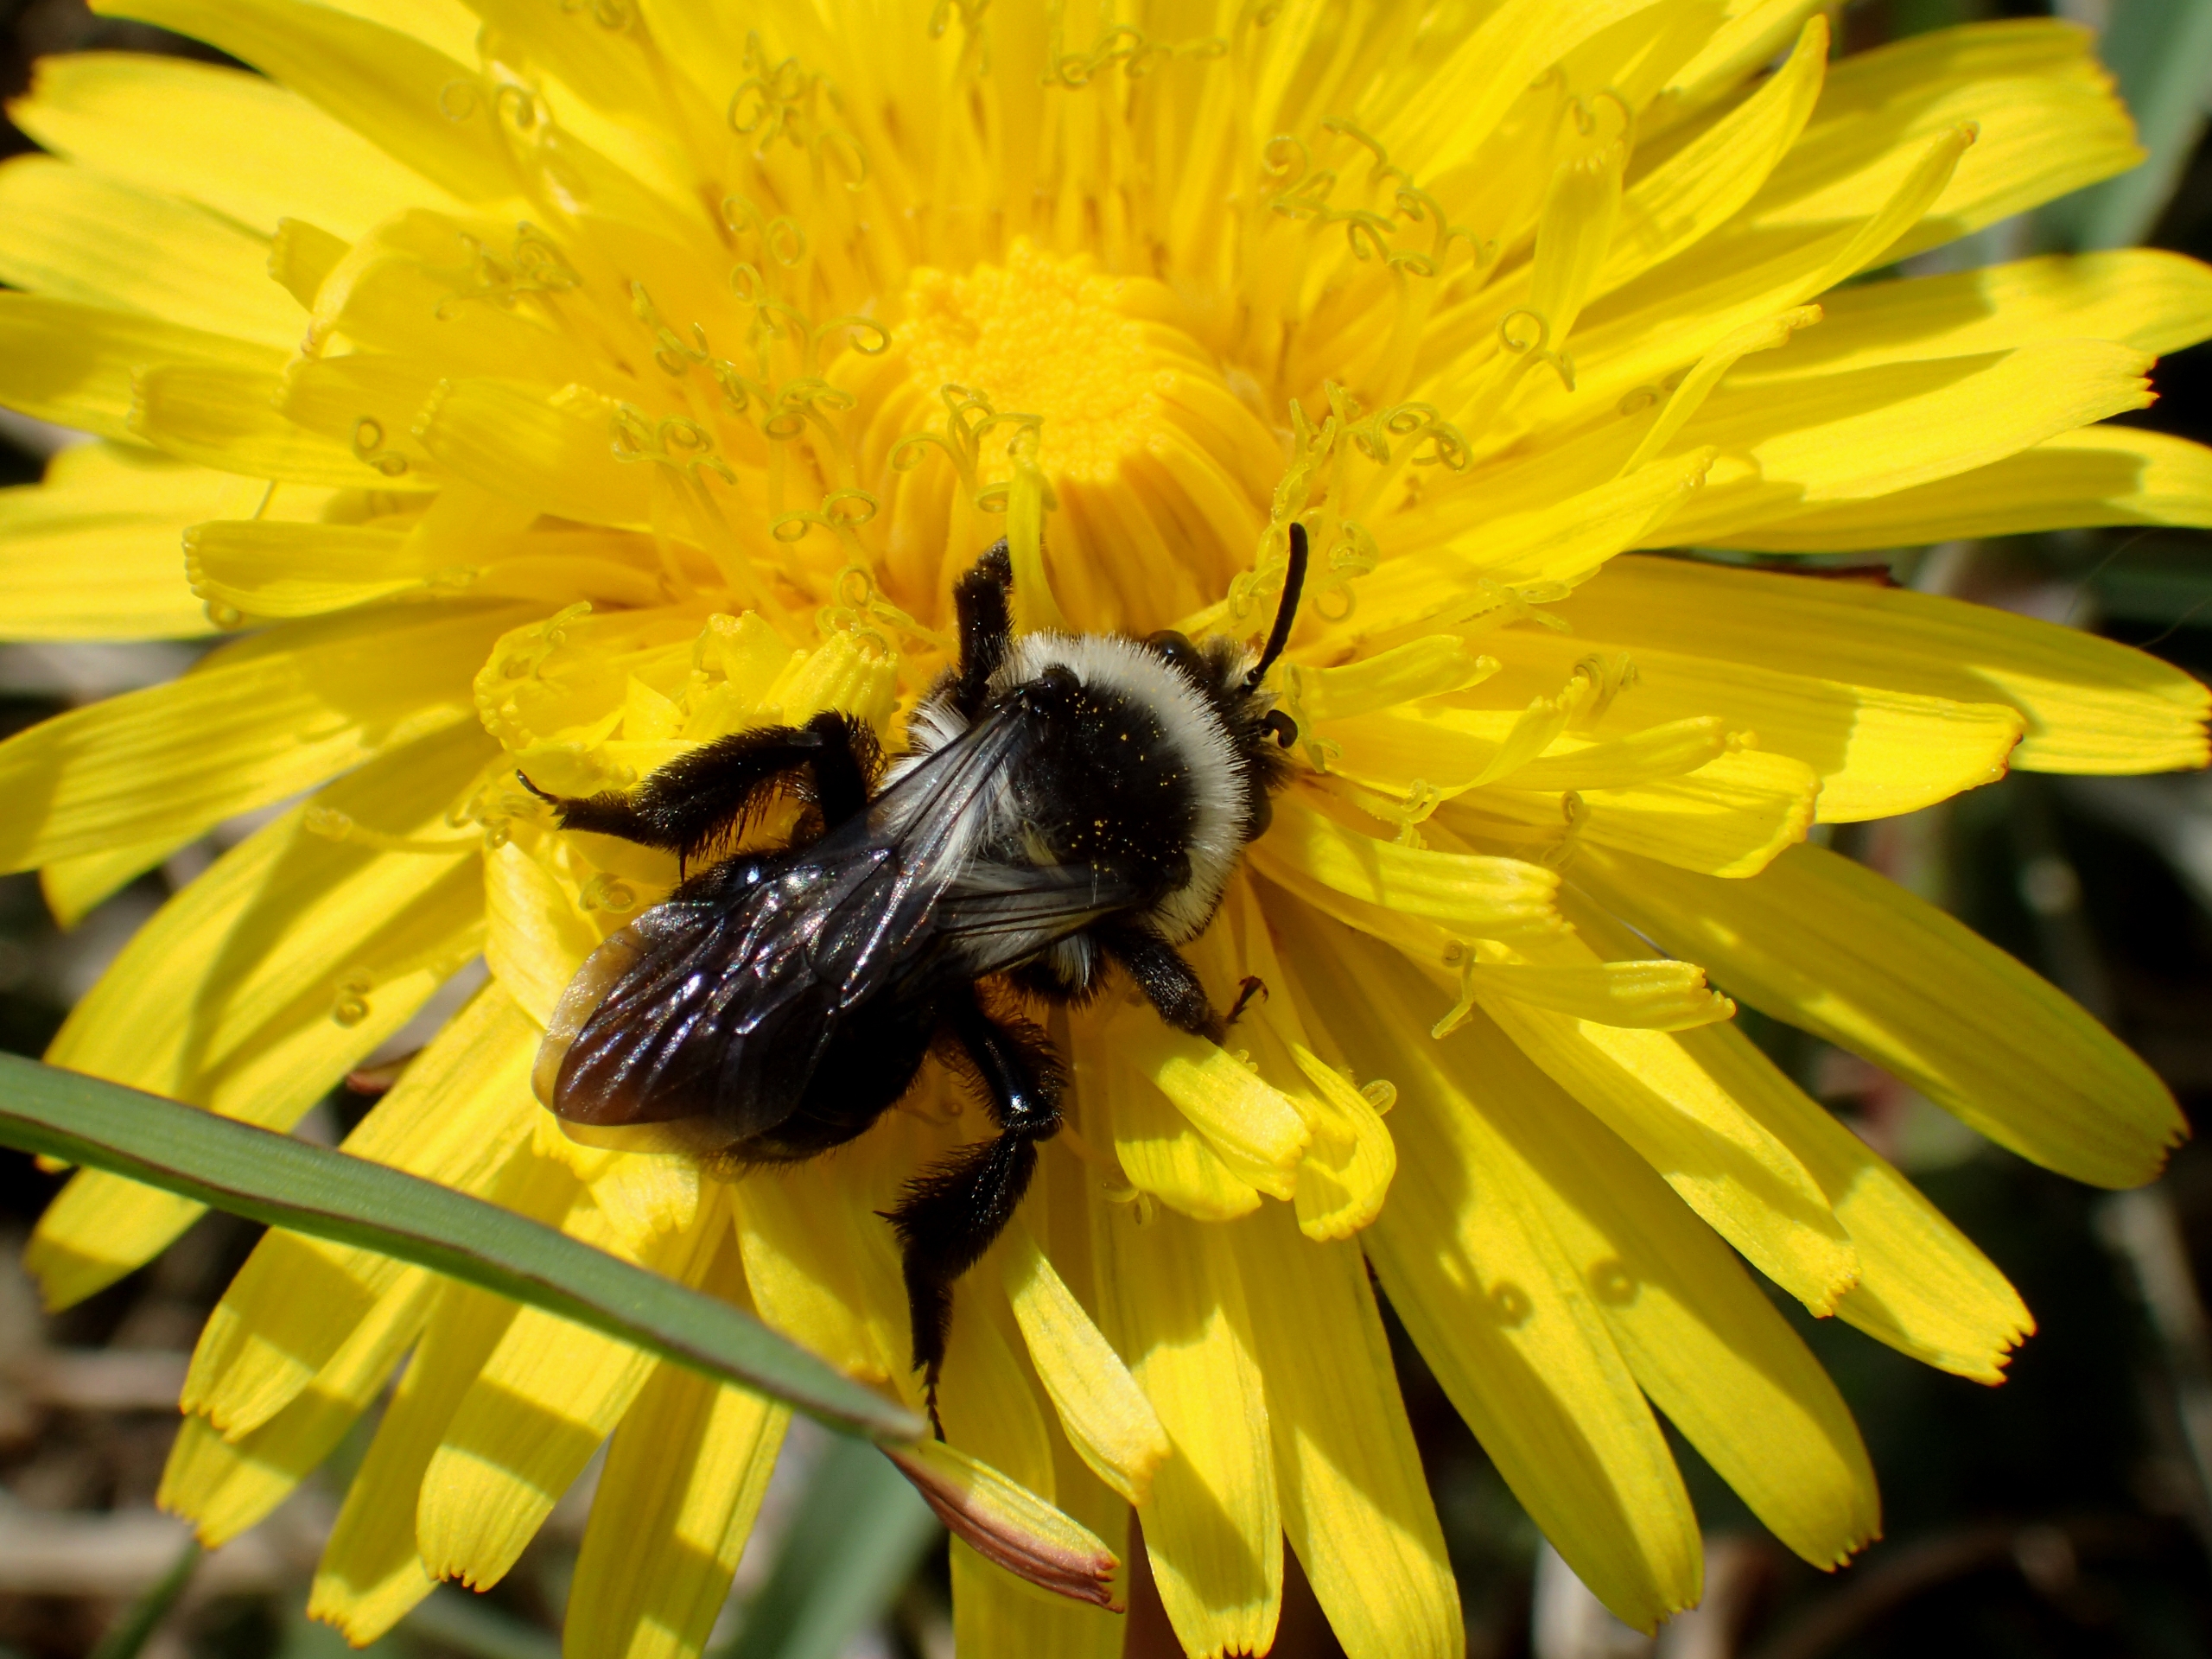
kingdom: Animalia
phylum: Arthropoda
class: Insecta
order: Hymenoptera
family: Andrenidae
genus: Andrena
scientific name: Andrena cineraria
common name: Sorthvid jordbi
